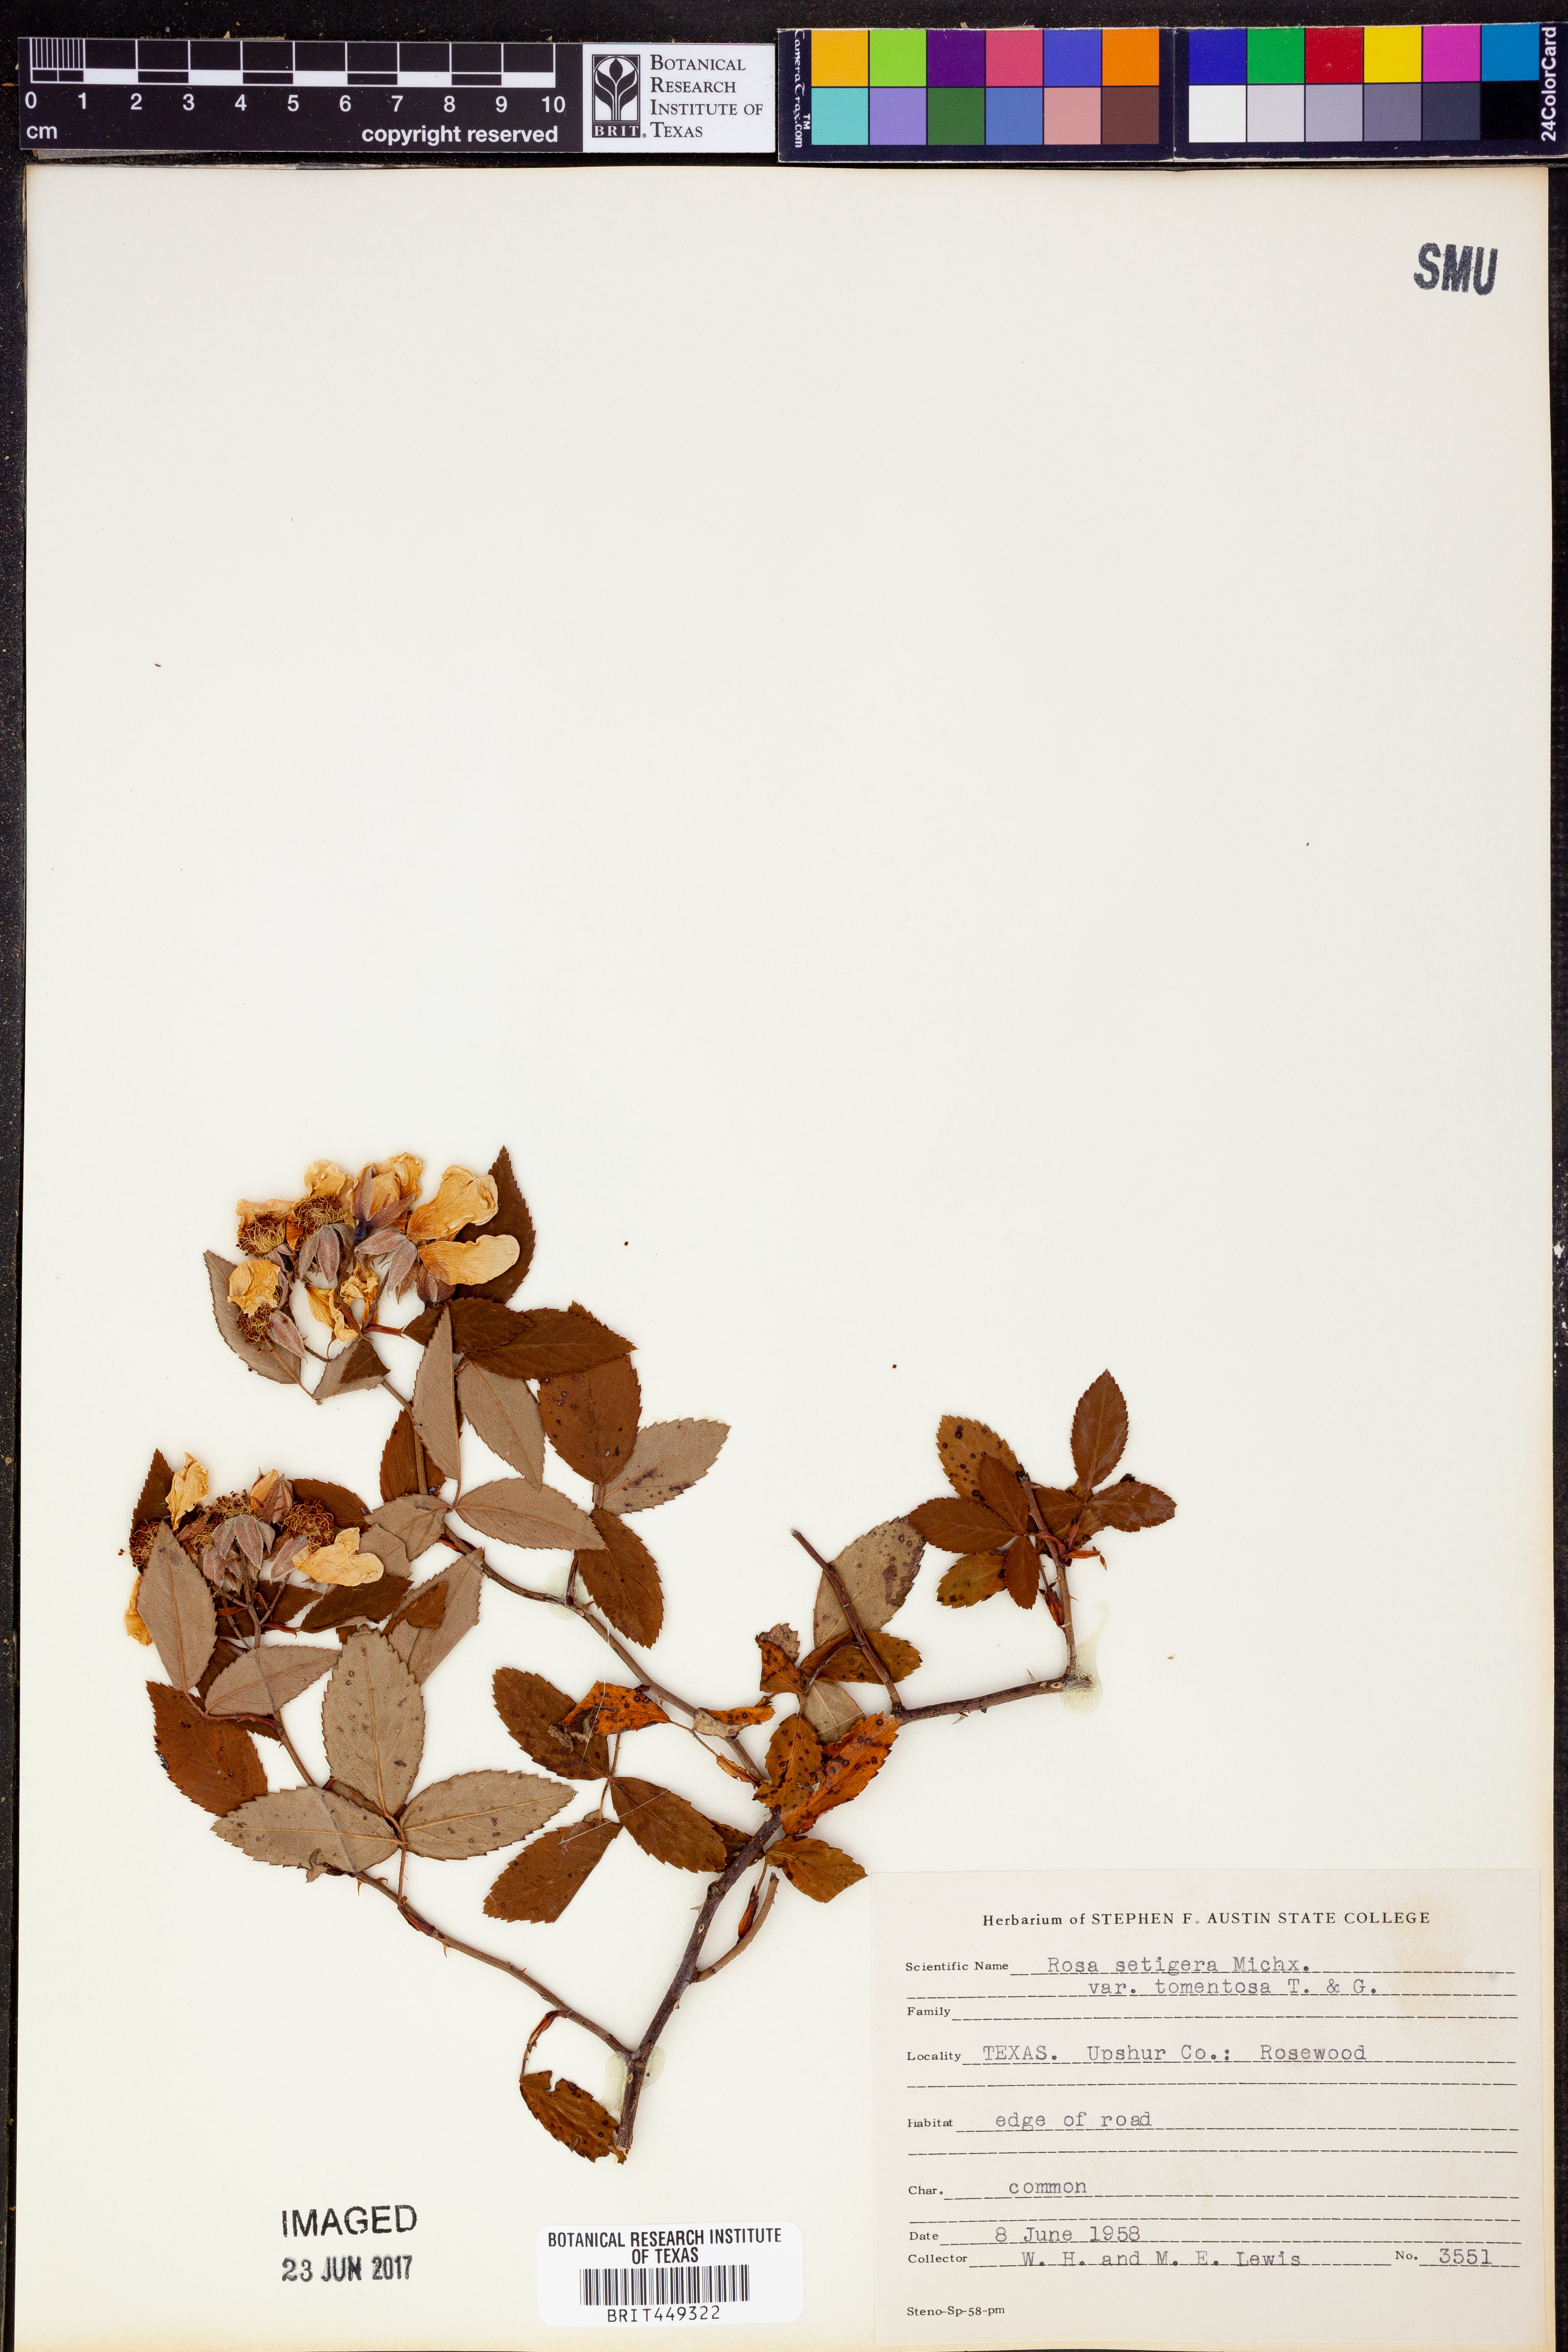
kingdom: Plantae
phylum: Tracheophyta
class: Magnoliopsida
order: Rosales
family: Rosaceae
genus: Rosa
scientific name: Rosa setigera
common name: Prairie rose
